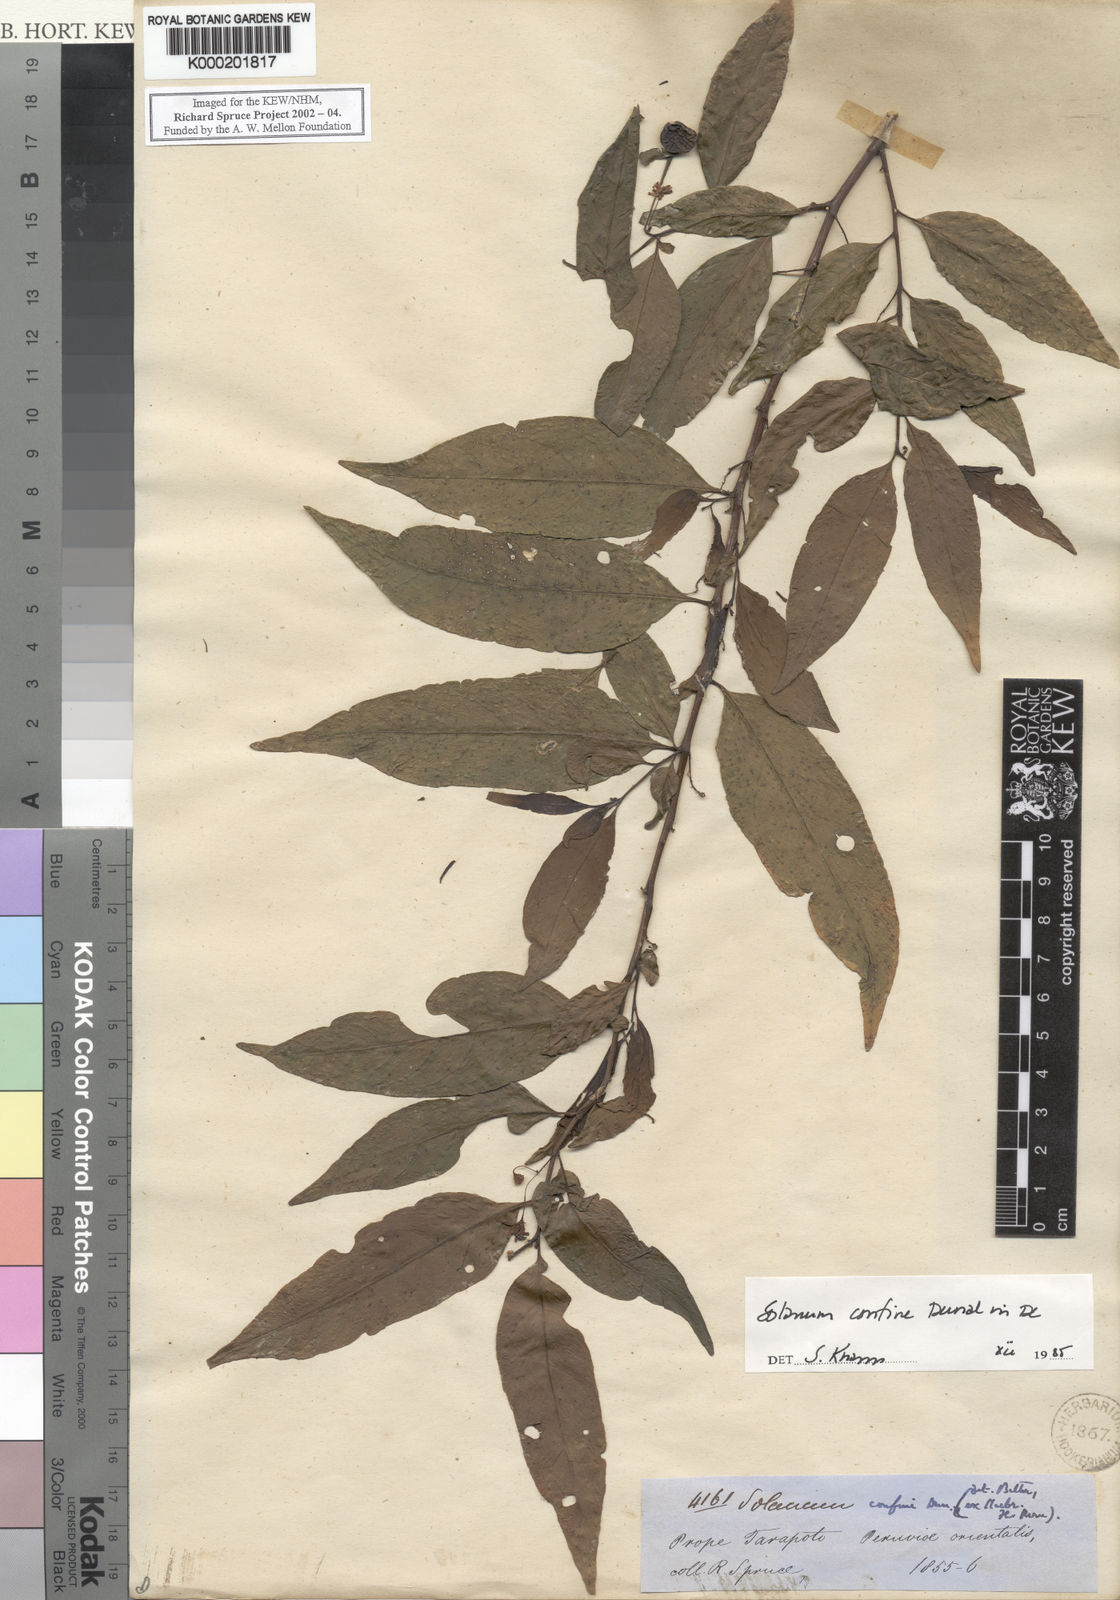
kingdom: Plantae
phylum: Tracheophyta
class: Magnoliopsida
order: Solanales
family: Solanaceae
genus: Solanum
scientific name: Solanum
